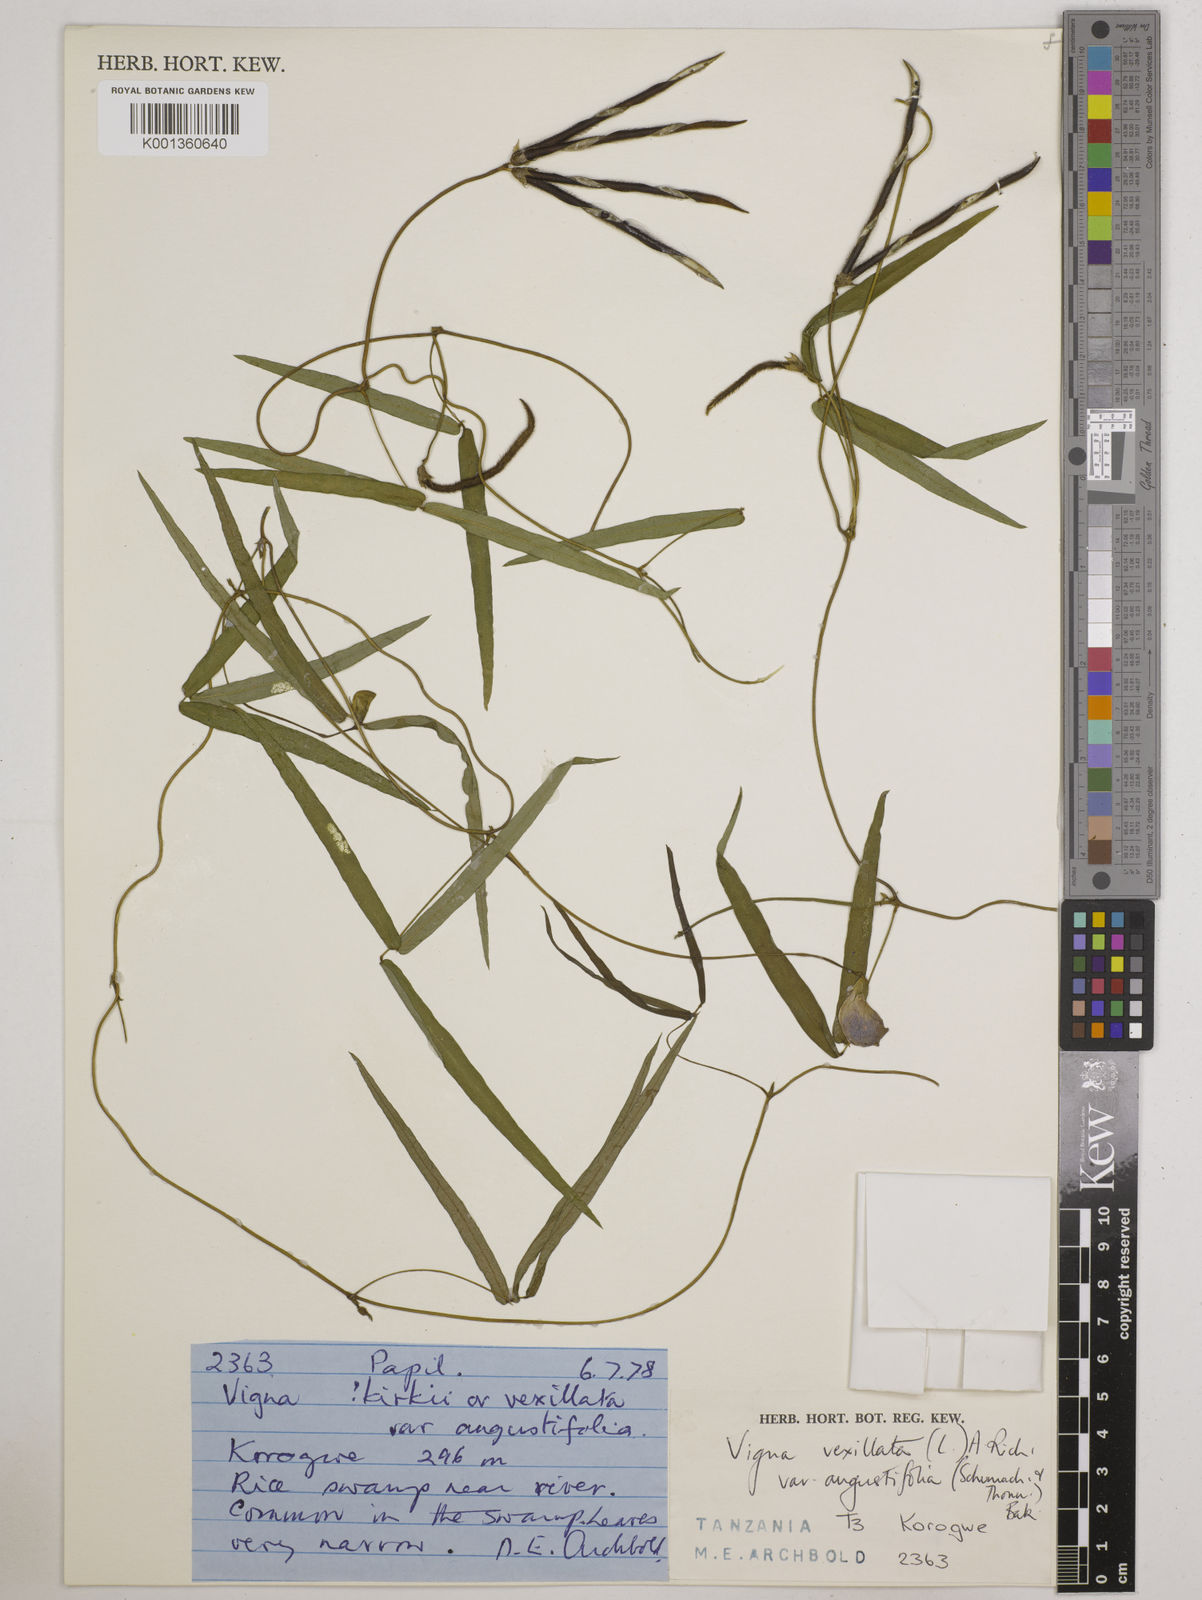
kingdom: Plantae
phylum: Tracheophyta
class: Magnoliopsida
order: Fabales
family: Fabaceae
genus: Vigna
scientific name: Vigna vexillata
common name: Zombi pea
